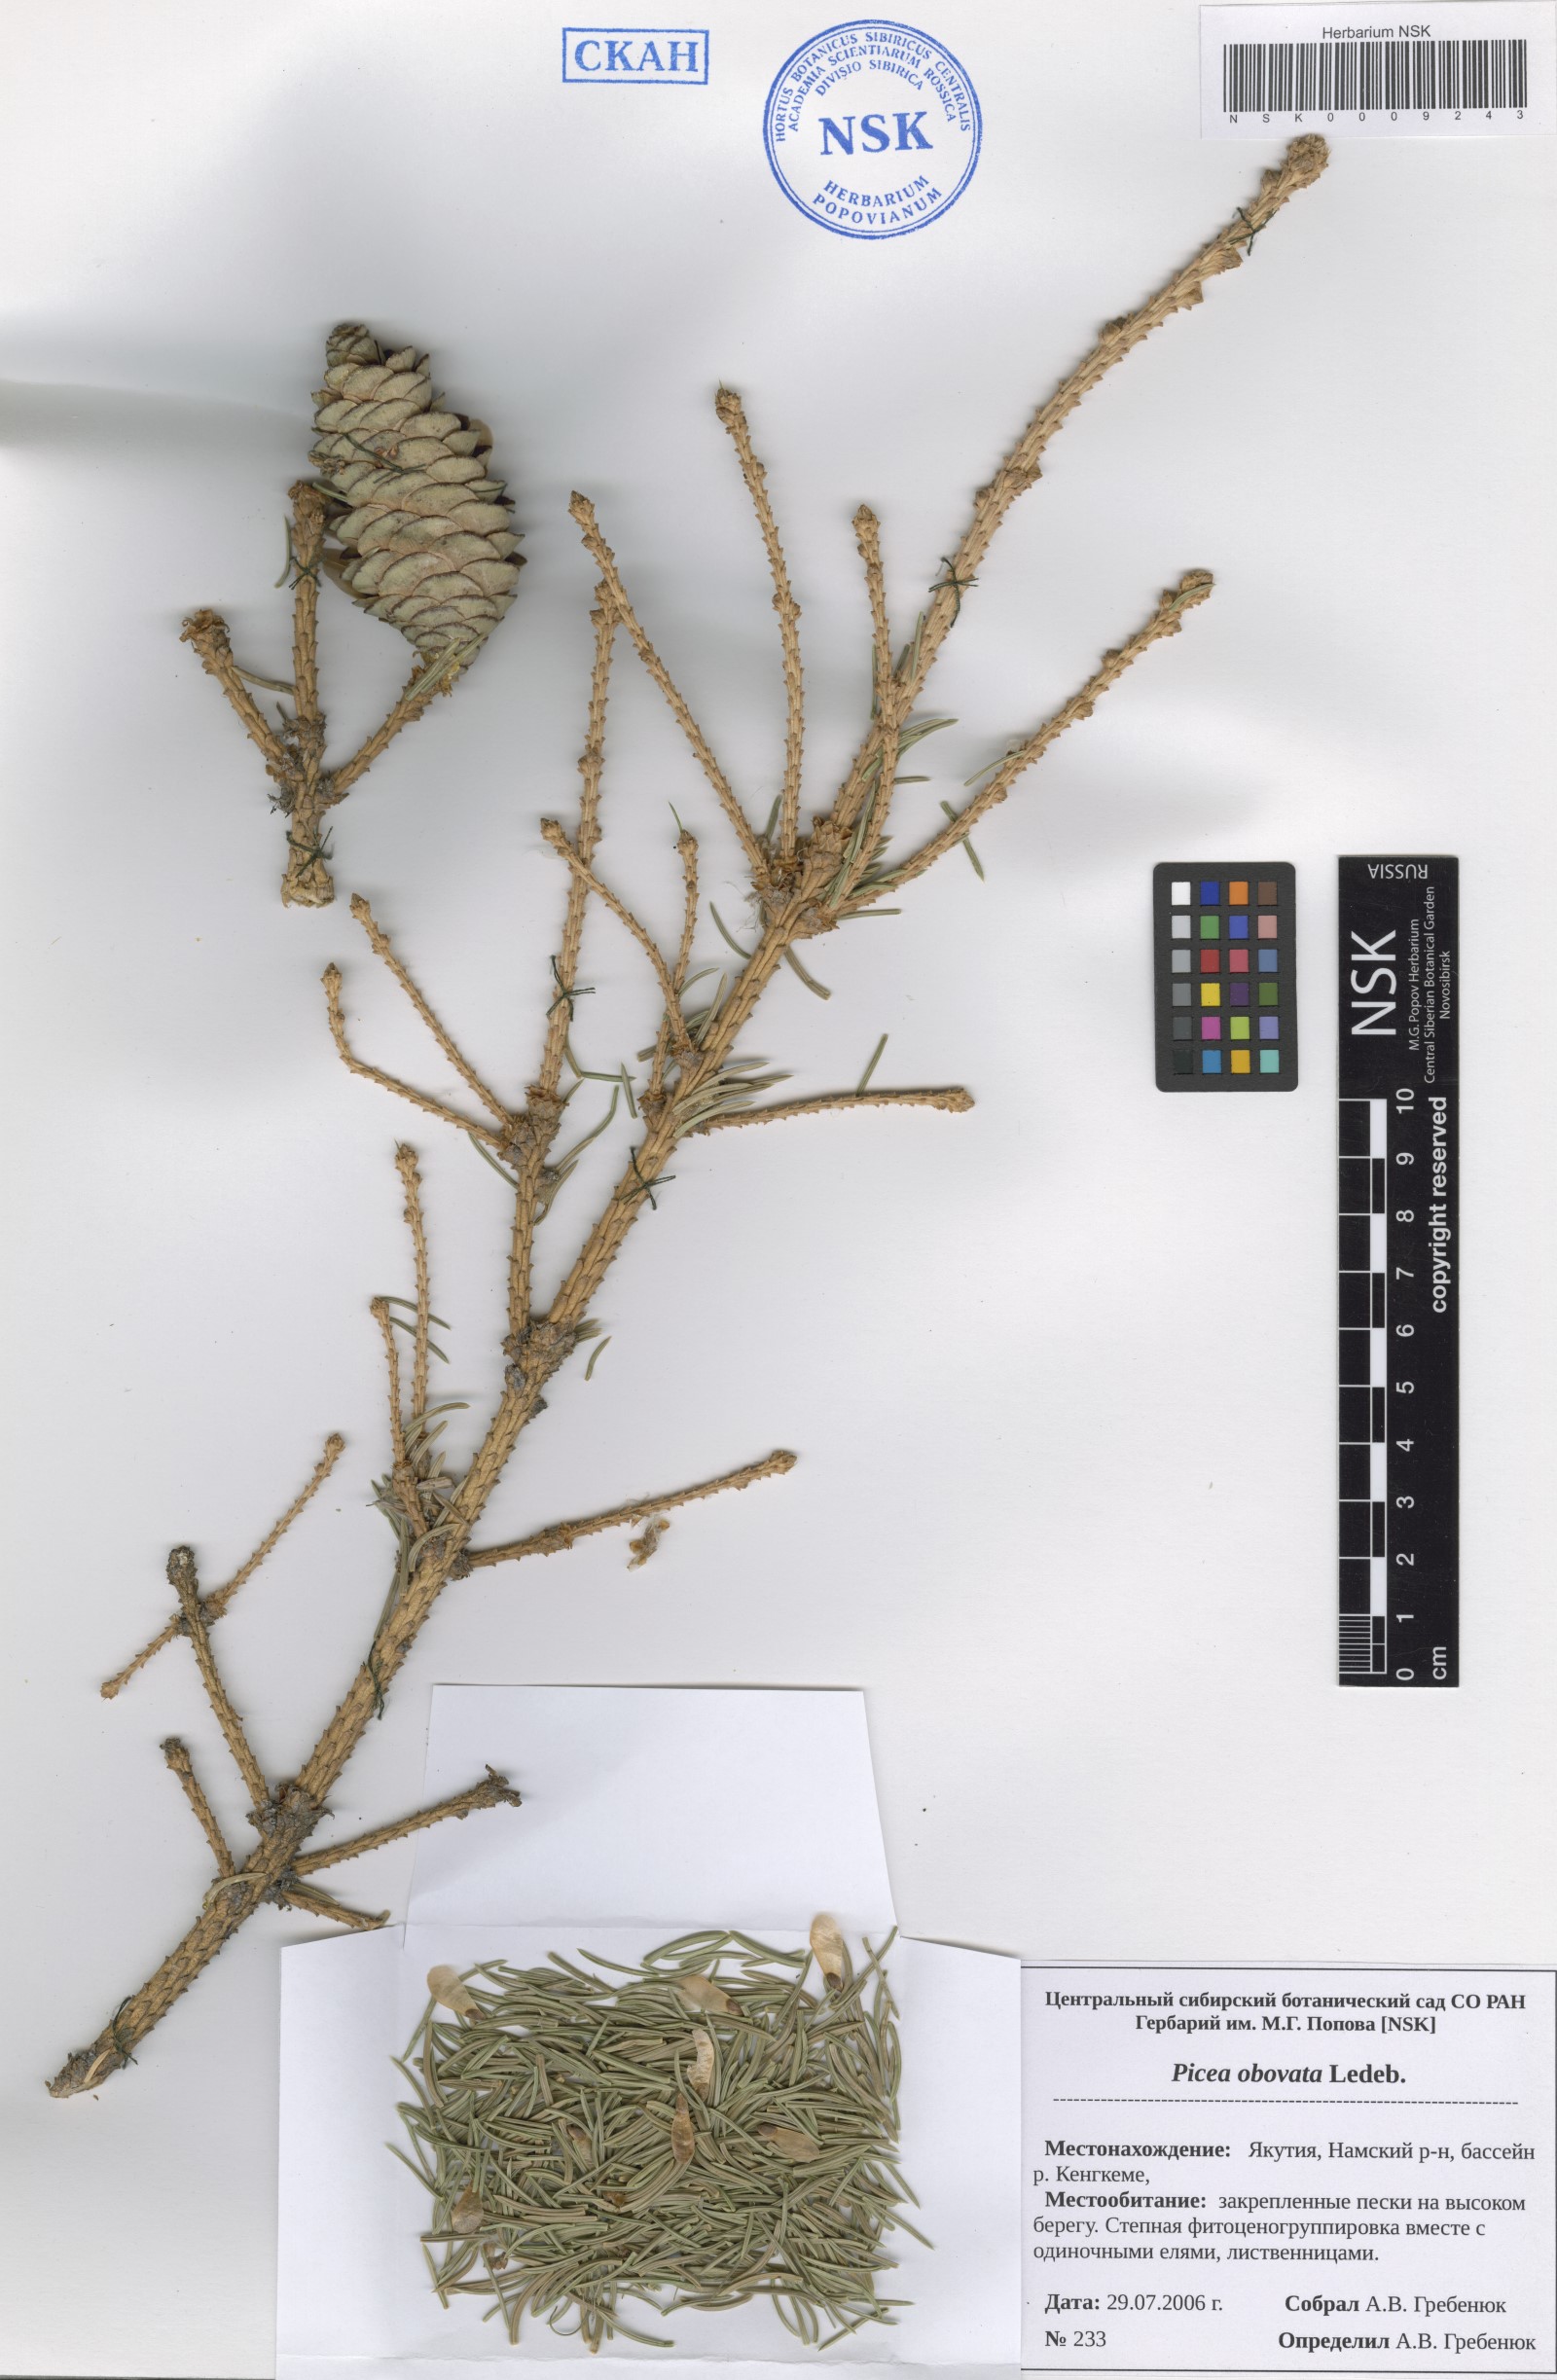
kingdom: Plantae
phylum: Tracheophyta
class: Pinopsida
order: Pinales
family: Pinaceae
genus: Picea
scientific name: Picea obovata
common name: Siberian spruce
